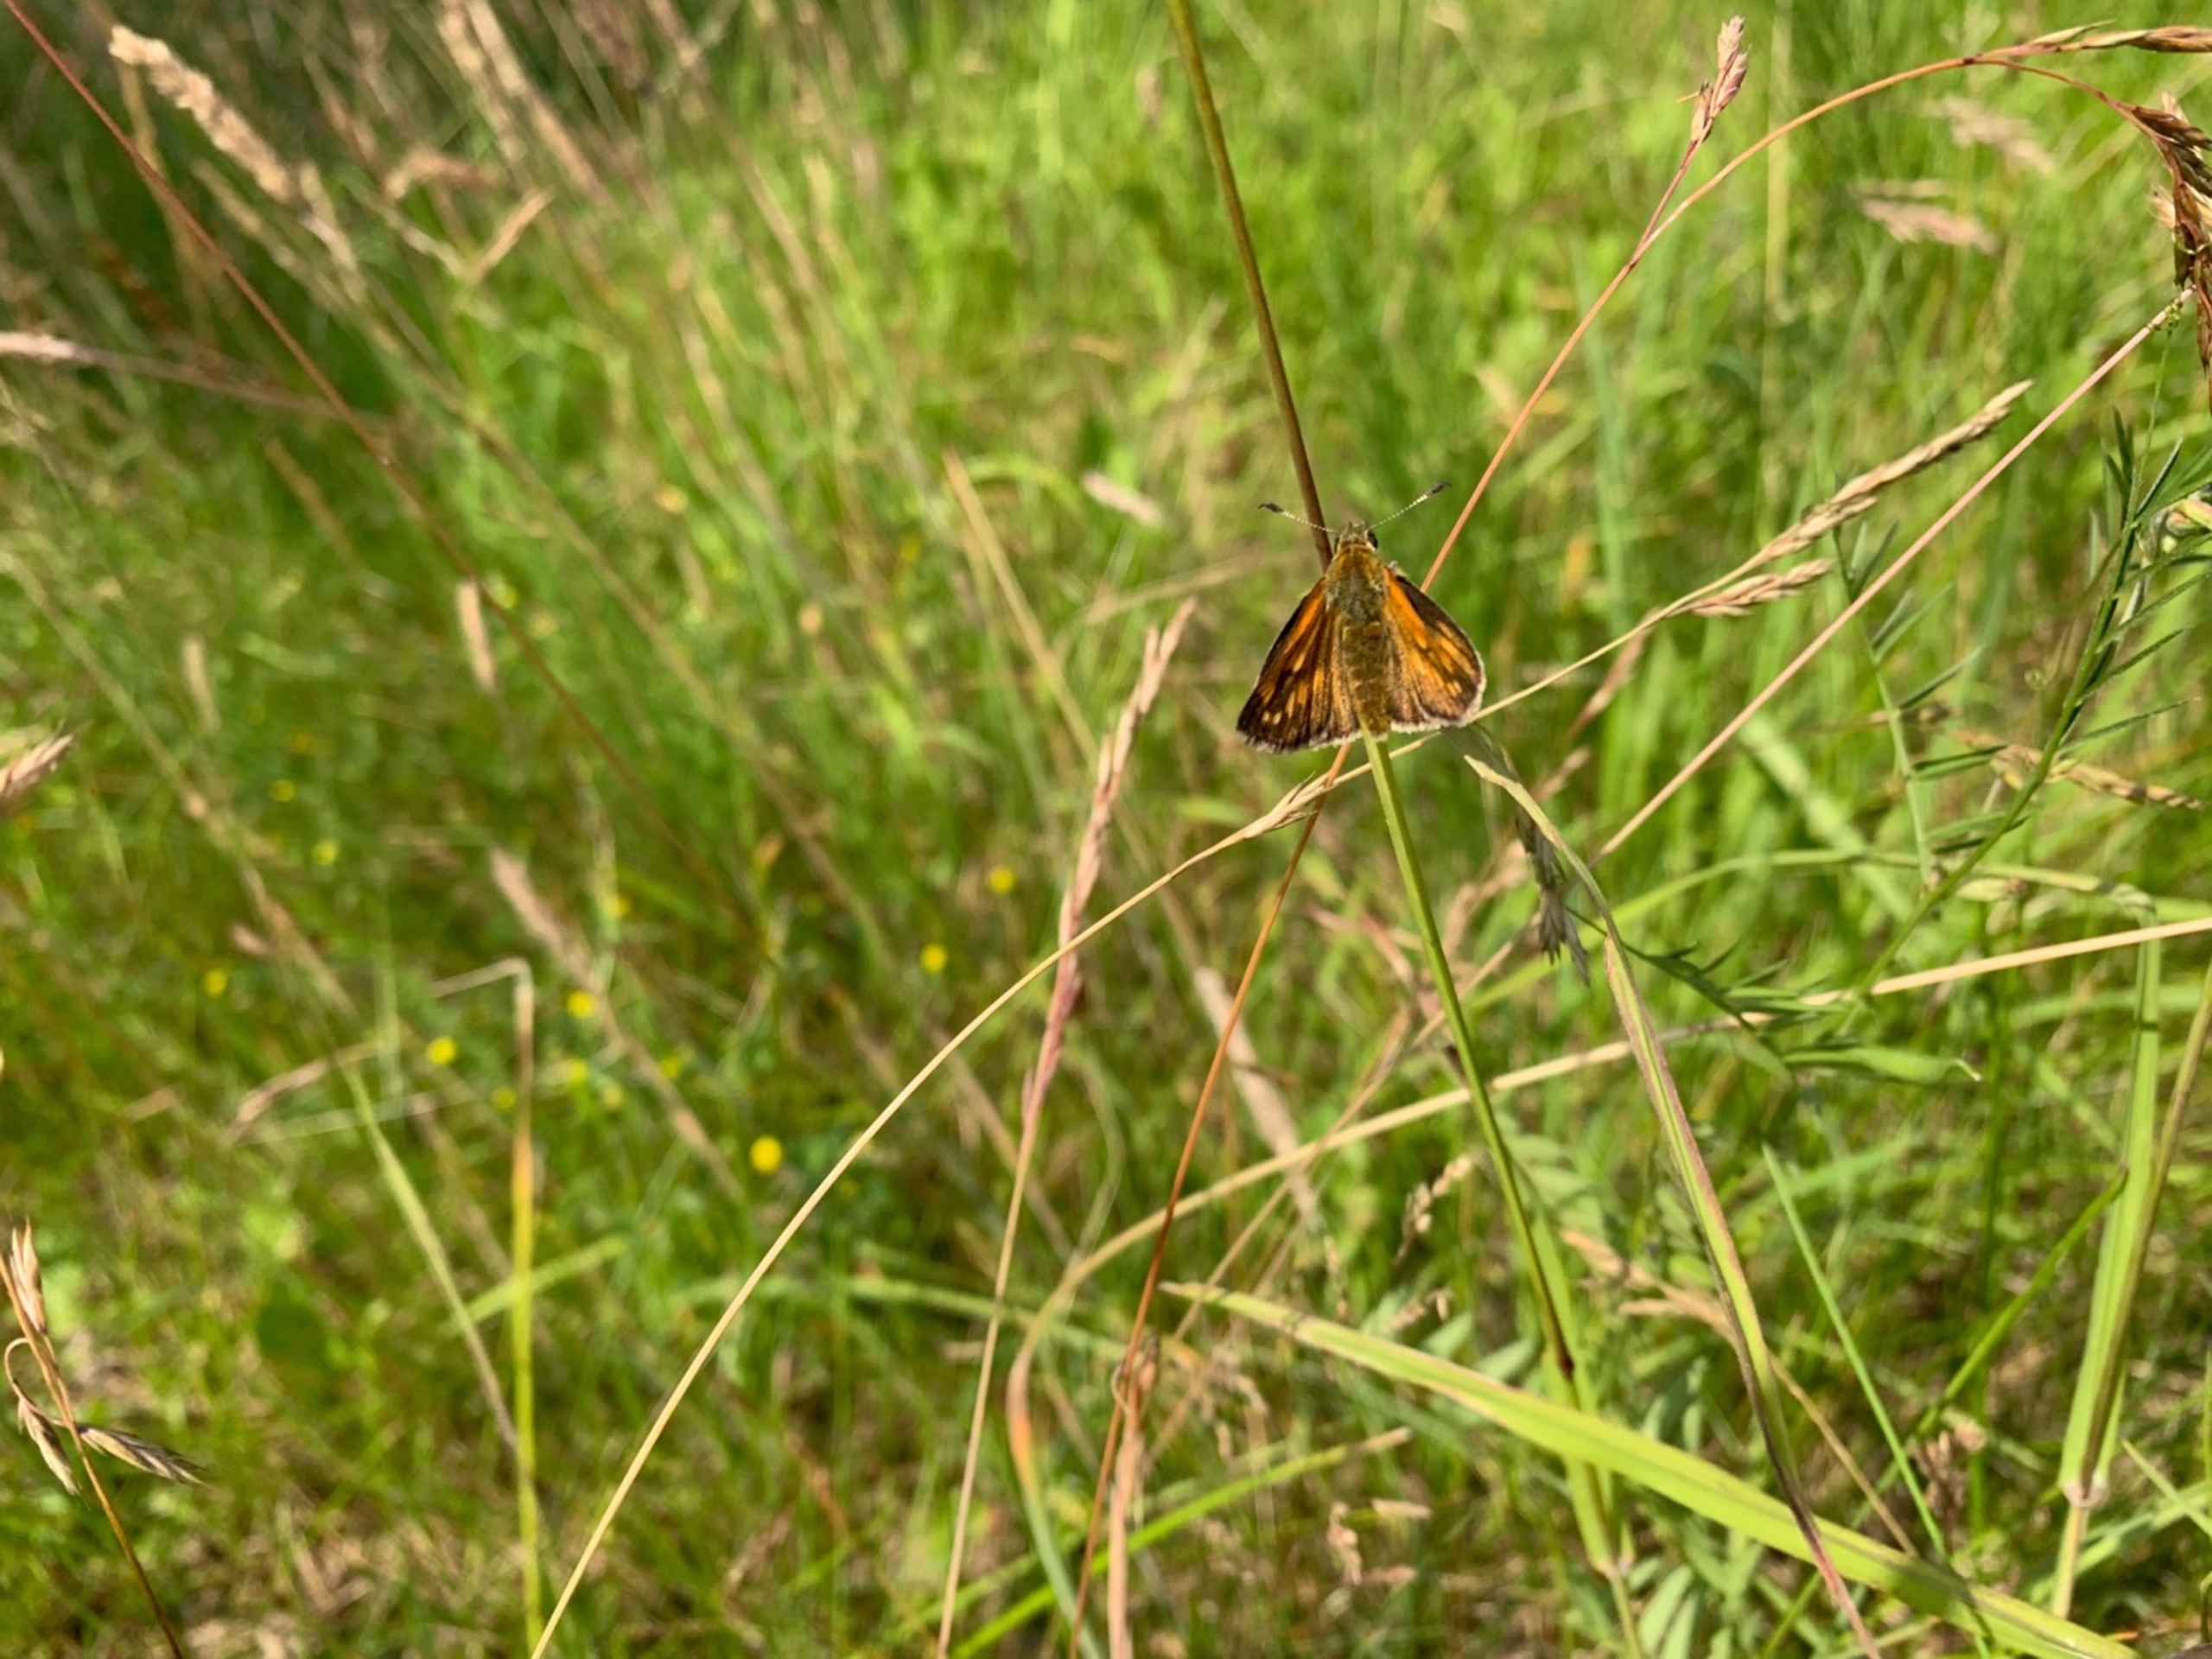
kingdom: Animalia
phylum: Arthropoda
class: Insecta
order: Lepidoptera
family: Hesperiidae
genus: Ochlodes
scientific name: Ochlodes venata
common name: Stor bredpande
